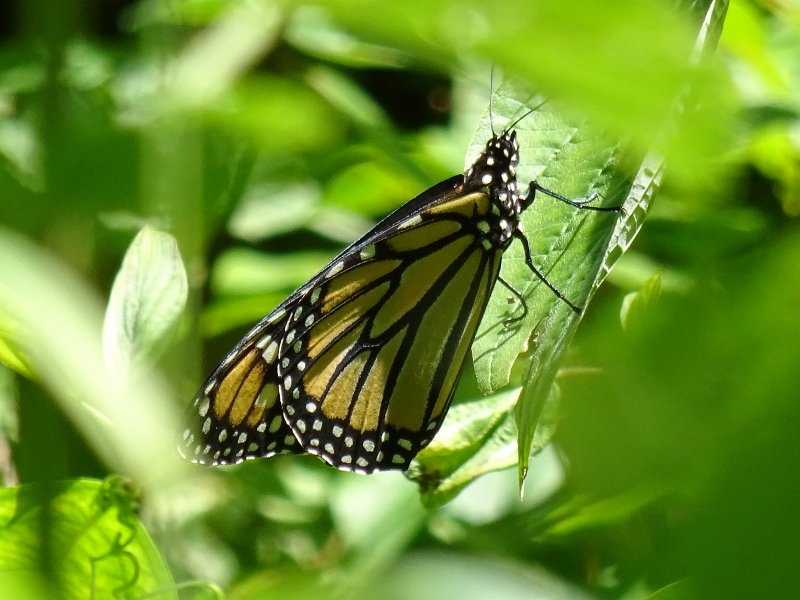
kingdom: Animalia
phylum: Arthropoda
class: Insecta
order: Lepidoptera
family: Nymphalidae
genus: Danaus
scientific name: Danaus plexippus
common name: Monarch
